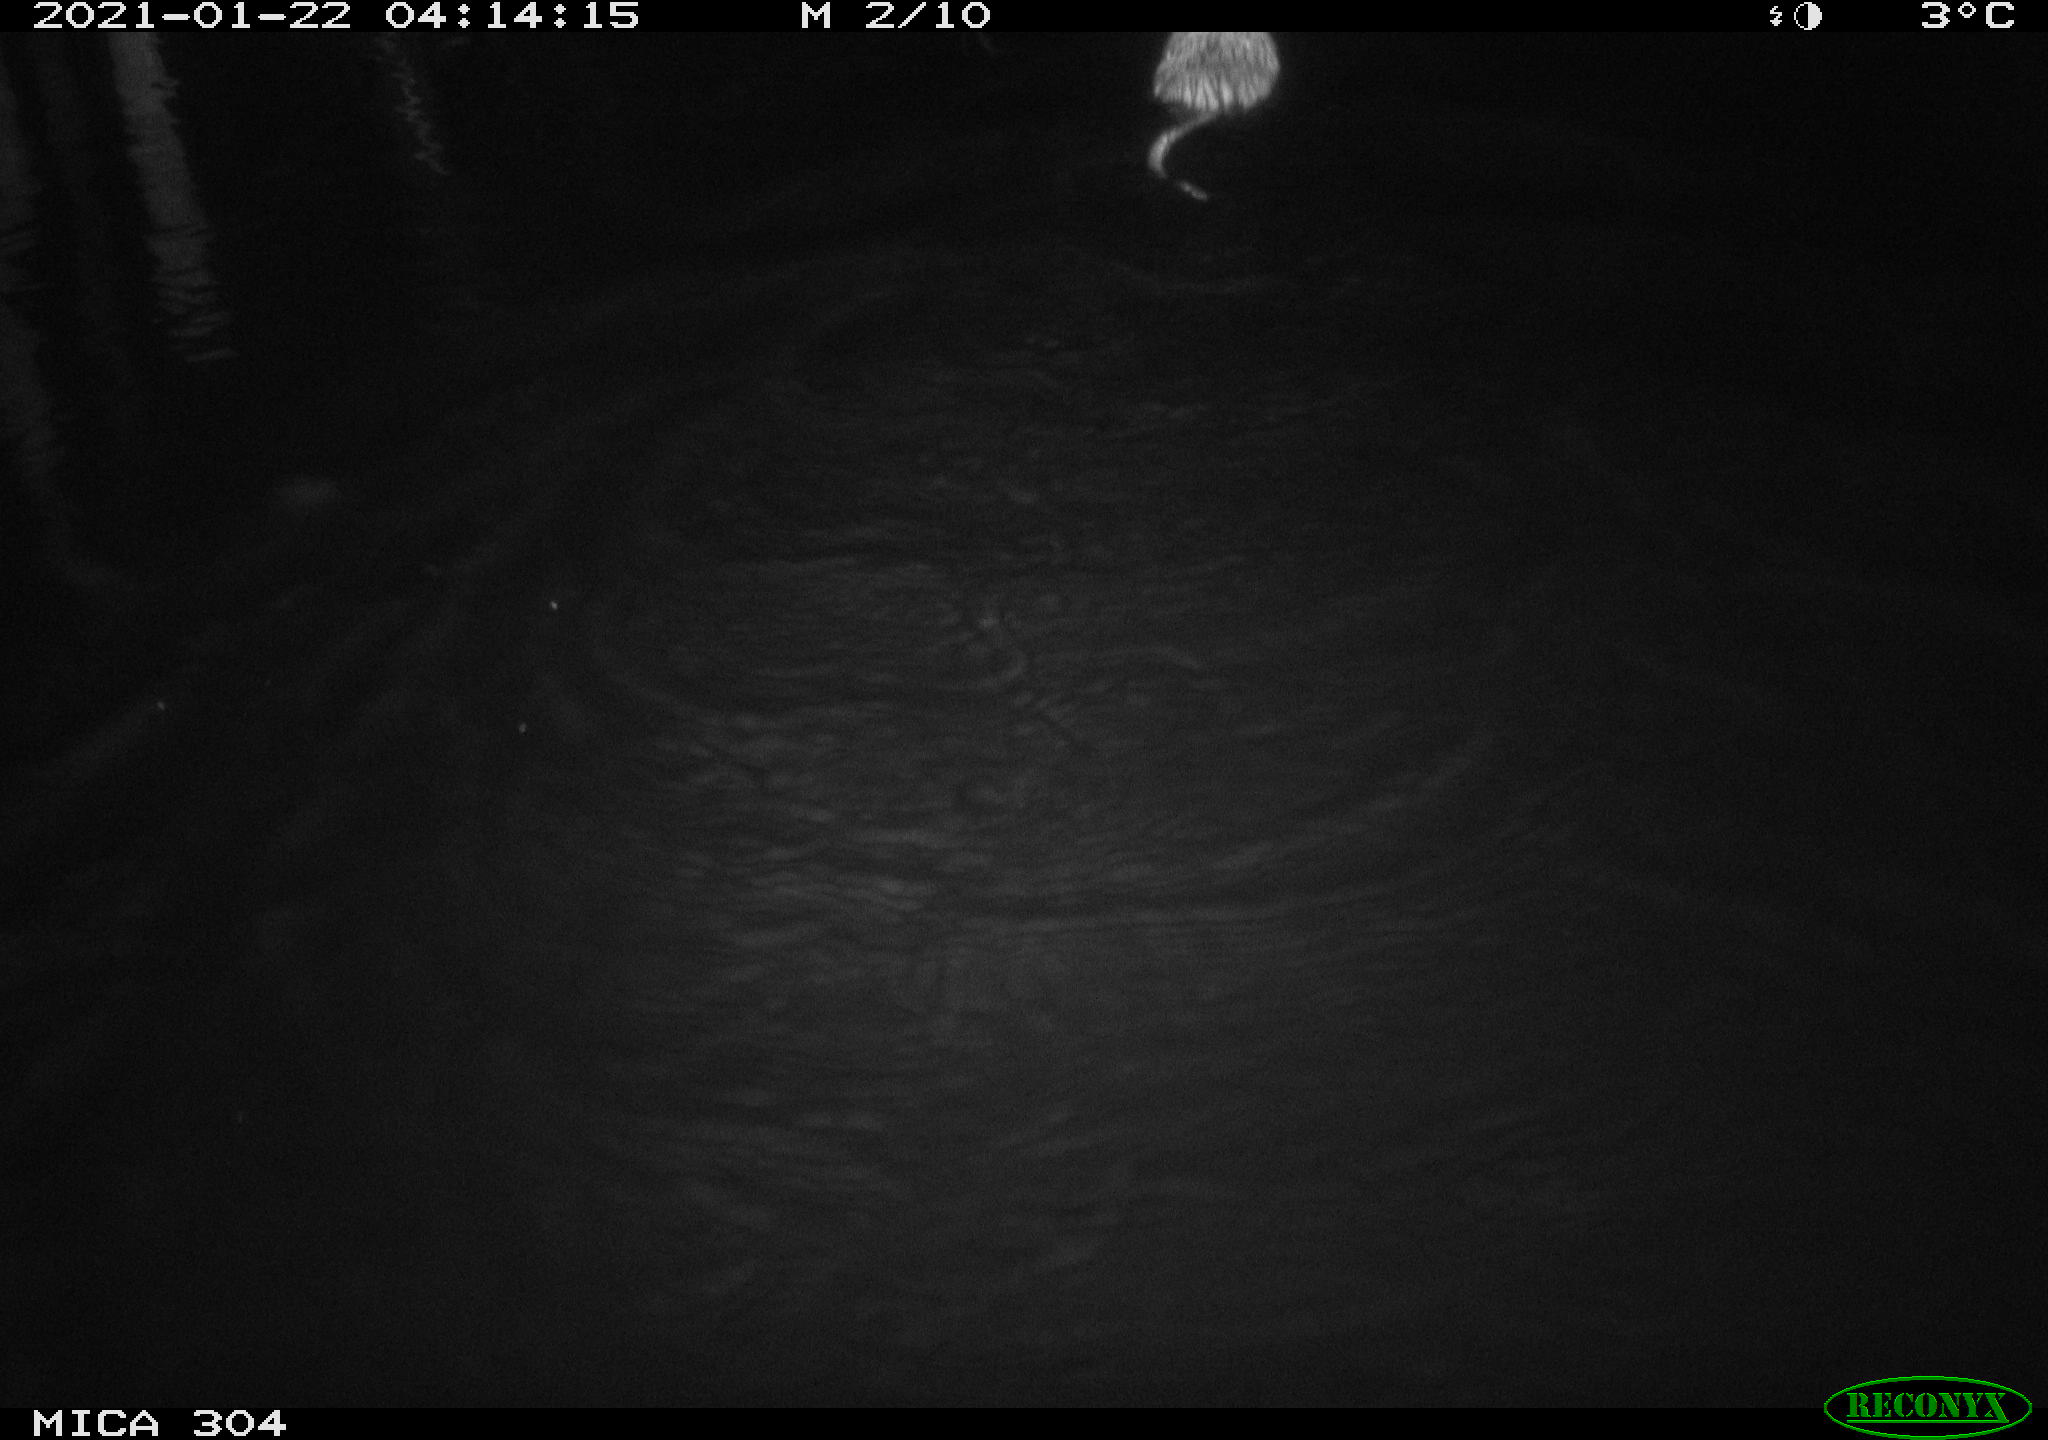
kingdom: Animalia
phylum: Chordata
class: Mammalia
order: Rodentia
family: Cricetidae
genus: Ondatra
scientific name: Ondatra zibethicus
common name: Muskrat
